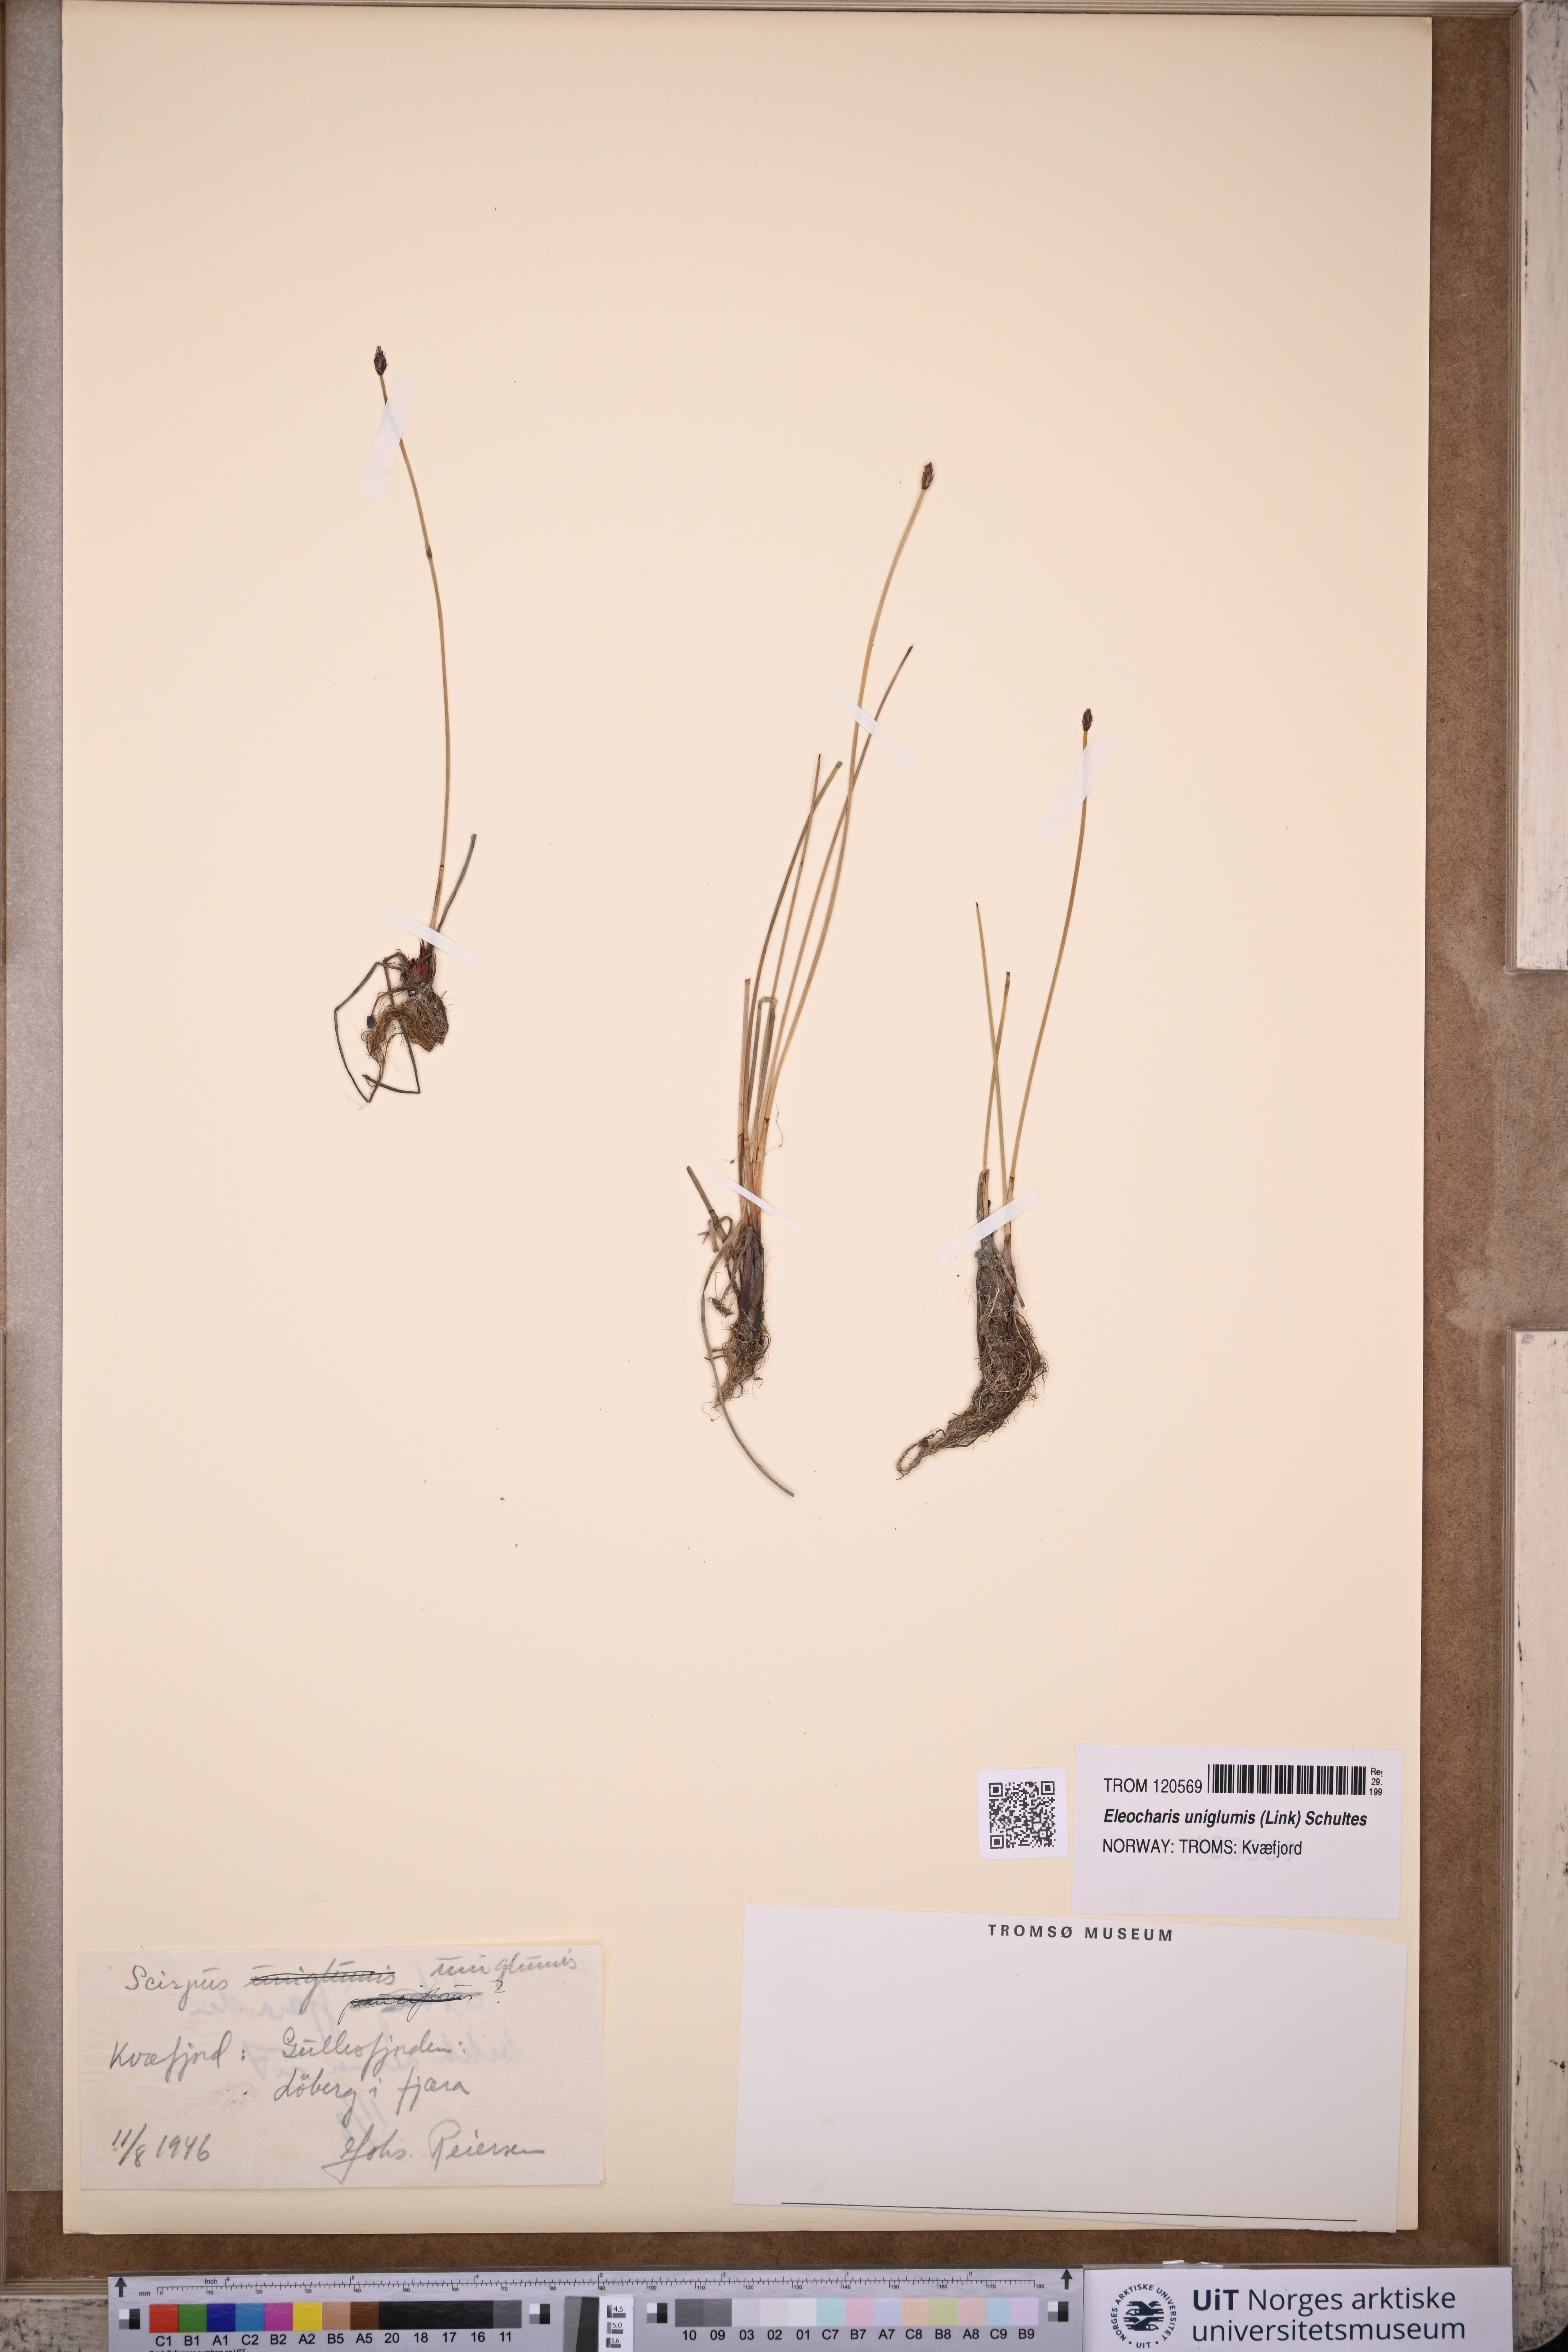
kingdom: Plantae
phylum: Tracheophyta
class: Liliopsida
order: Poales
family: Cyperaceae
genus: Eleocharis
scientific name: Eleocharis uniglumis
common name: Slender spike-rush
